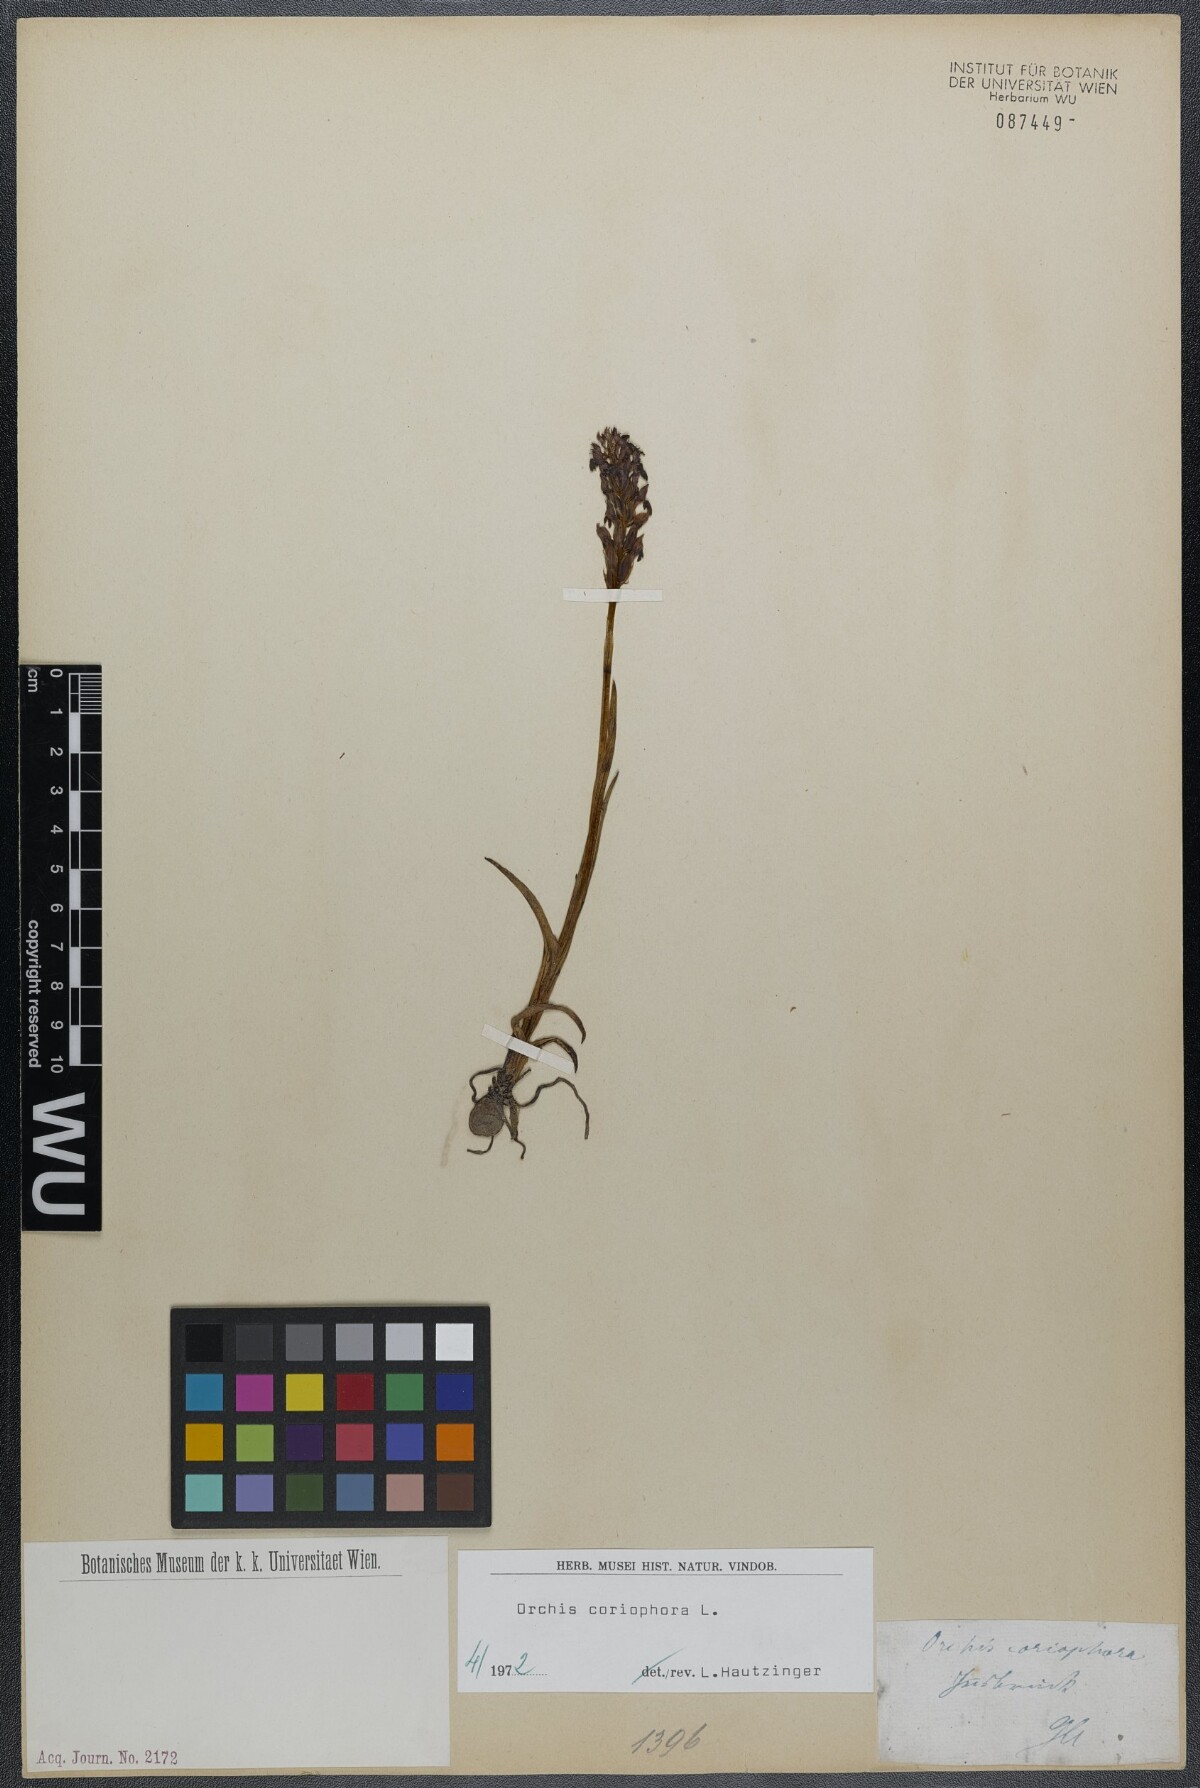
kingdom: Plantae
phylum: Tracheophyta
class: Liliopsida
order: Asparagales
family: Orchidaceae
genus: Anacamptis
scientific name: Anacamptis coriophora
